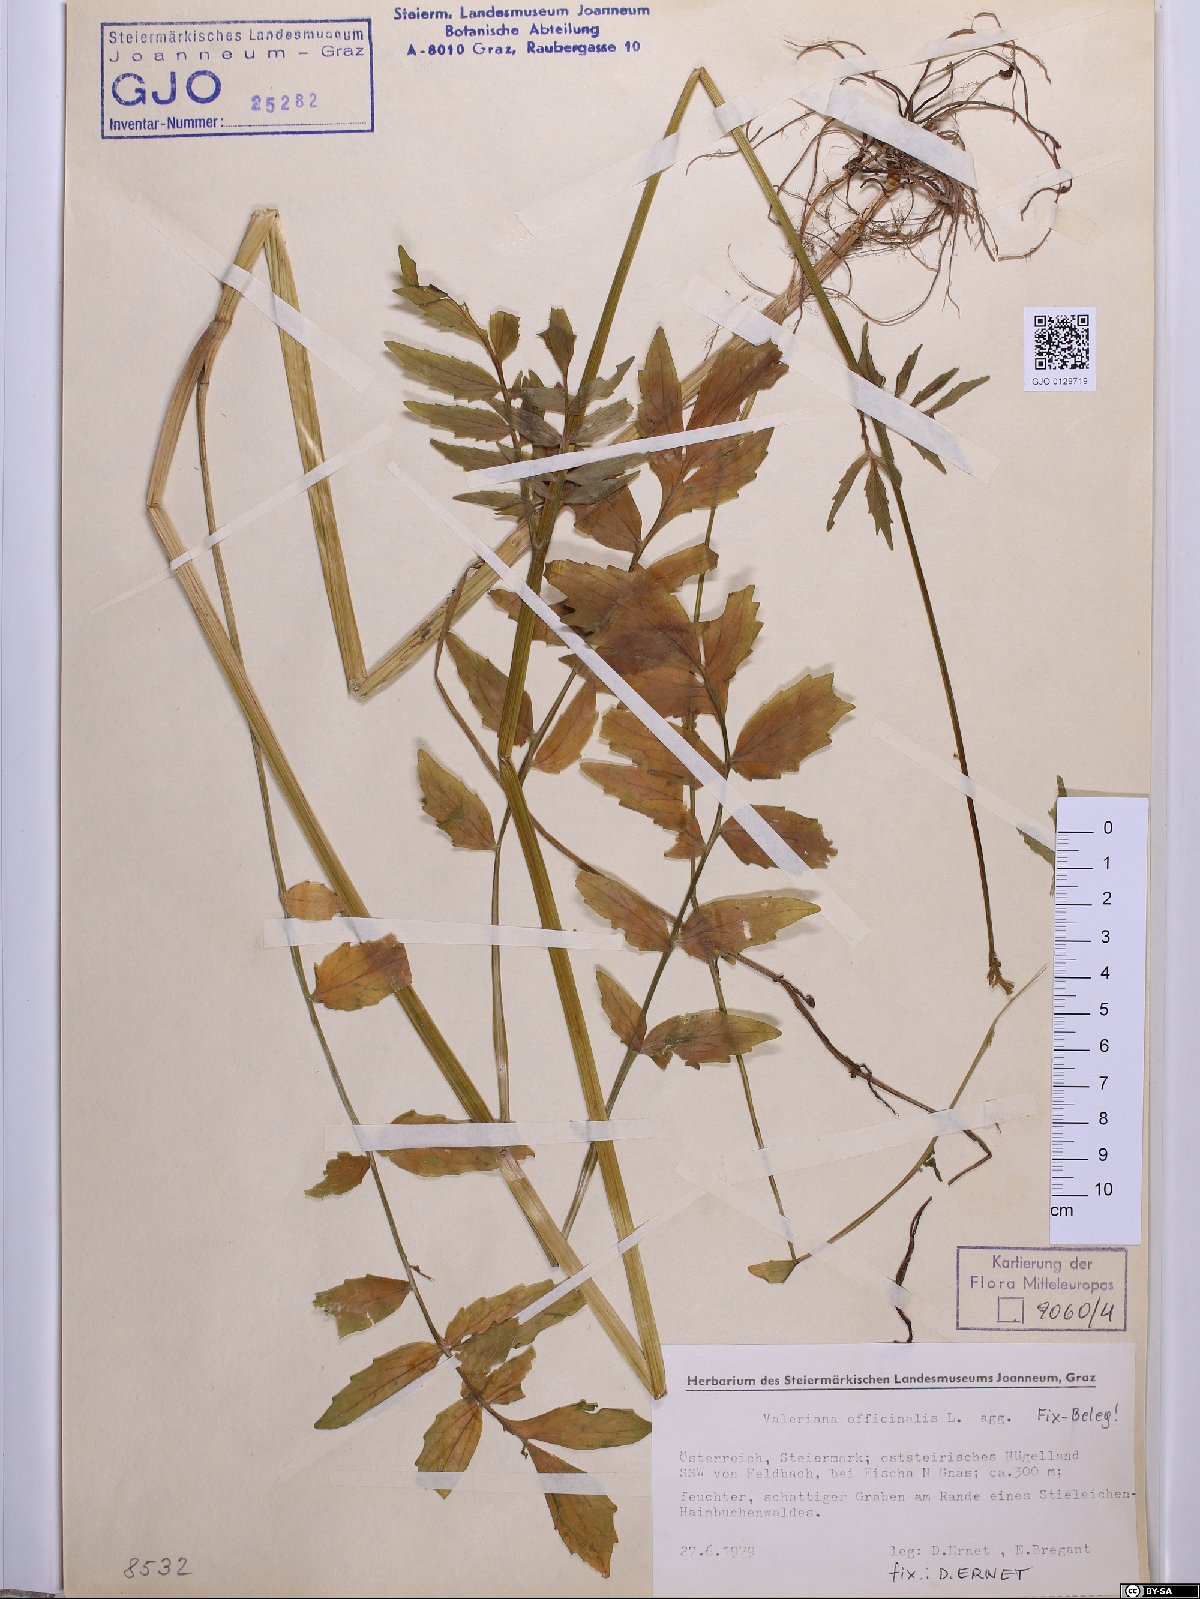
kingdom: Plantae
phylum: Tracheophyta
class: Magnoliopsida
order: Dipsacales
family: Caprifoliaceae
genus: Valeriana
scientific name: Valeriana officinalis
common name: Common valerian
